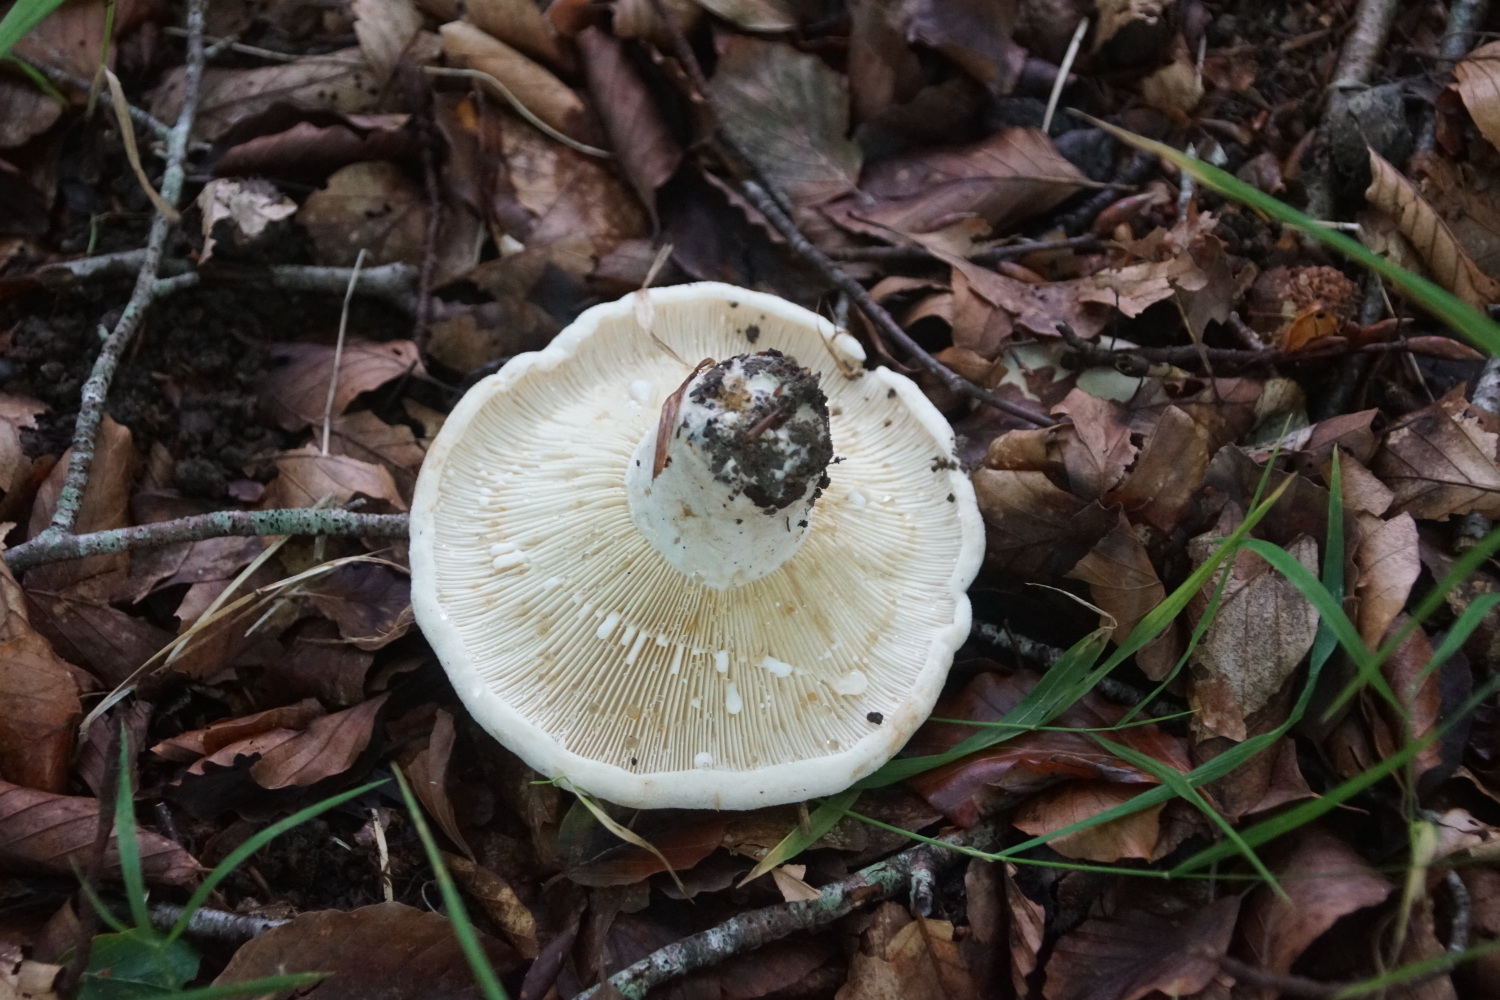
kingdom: Fungi
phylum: Basidiomycota
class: Agaricomycetes
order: Russulales
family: Russulaceae
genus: Lactifluus
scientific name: Lactifluus vellereus
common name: hvidfiltet mælkehat
